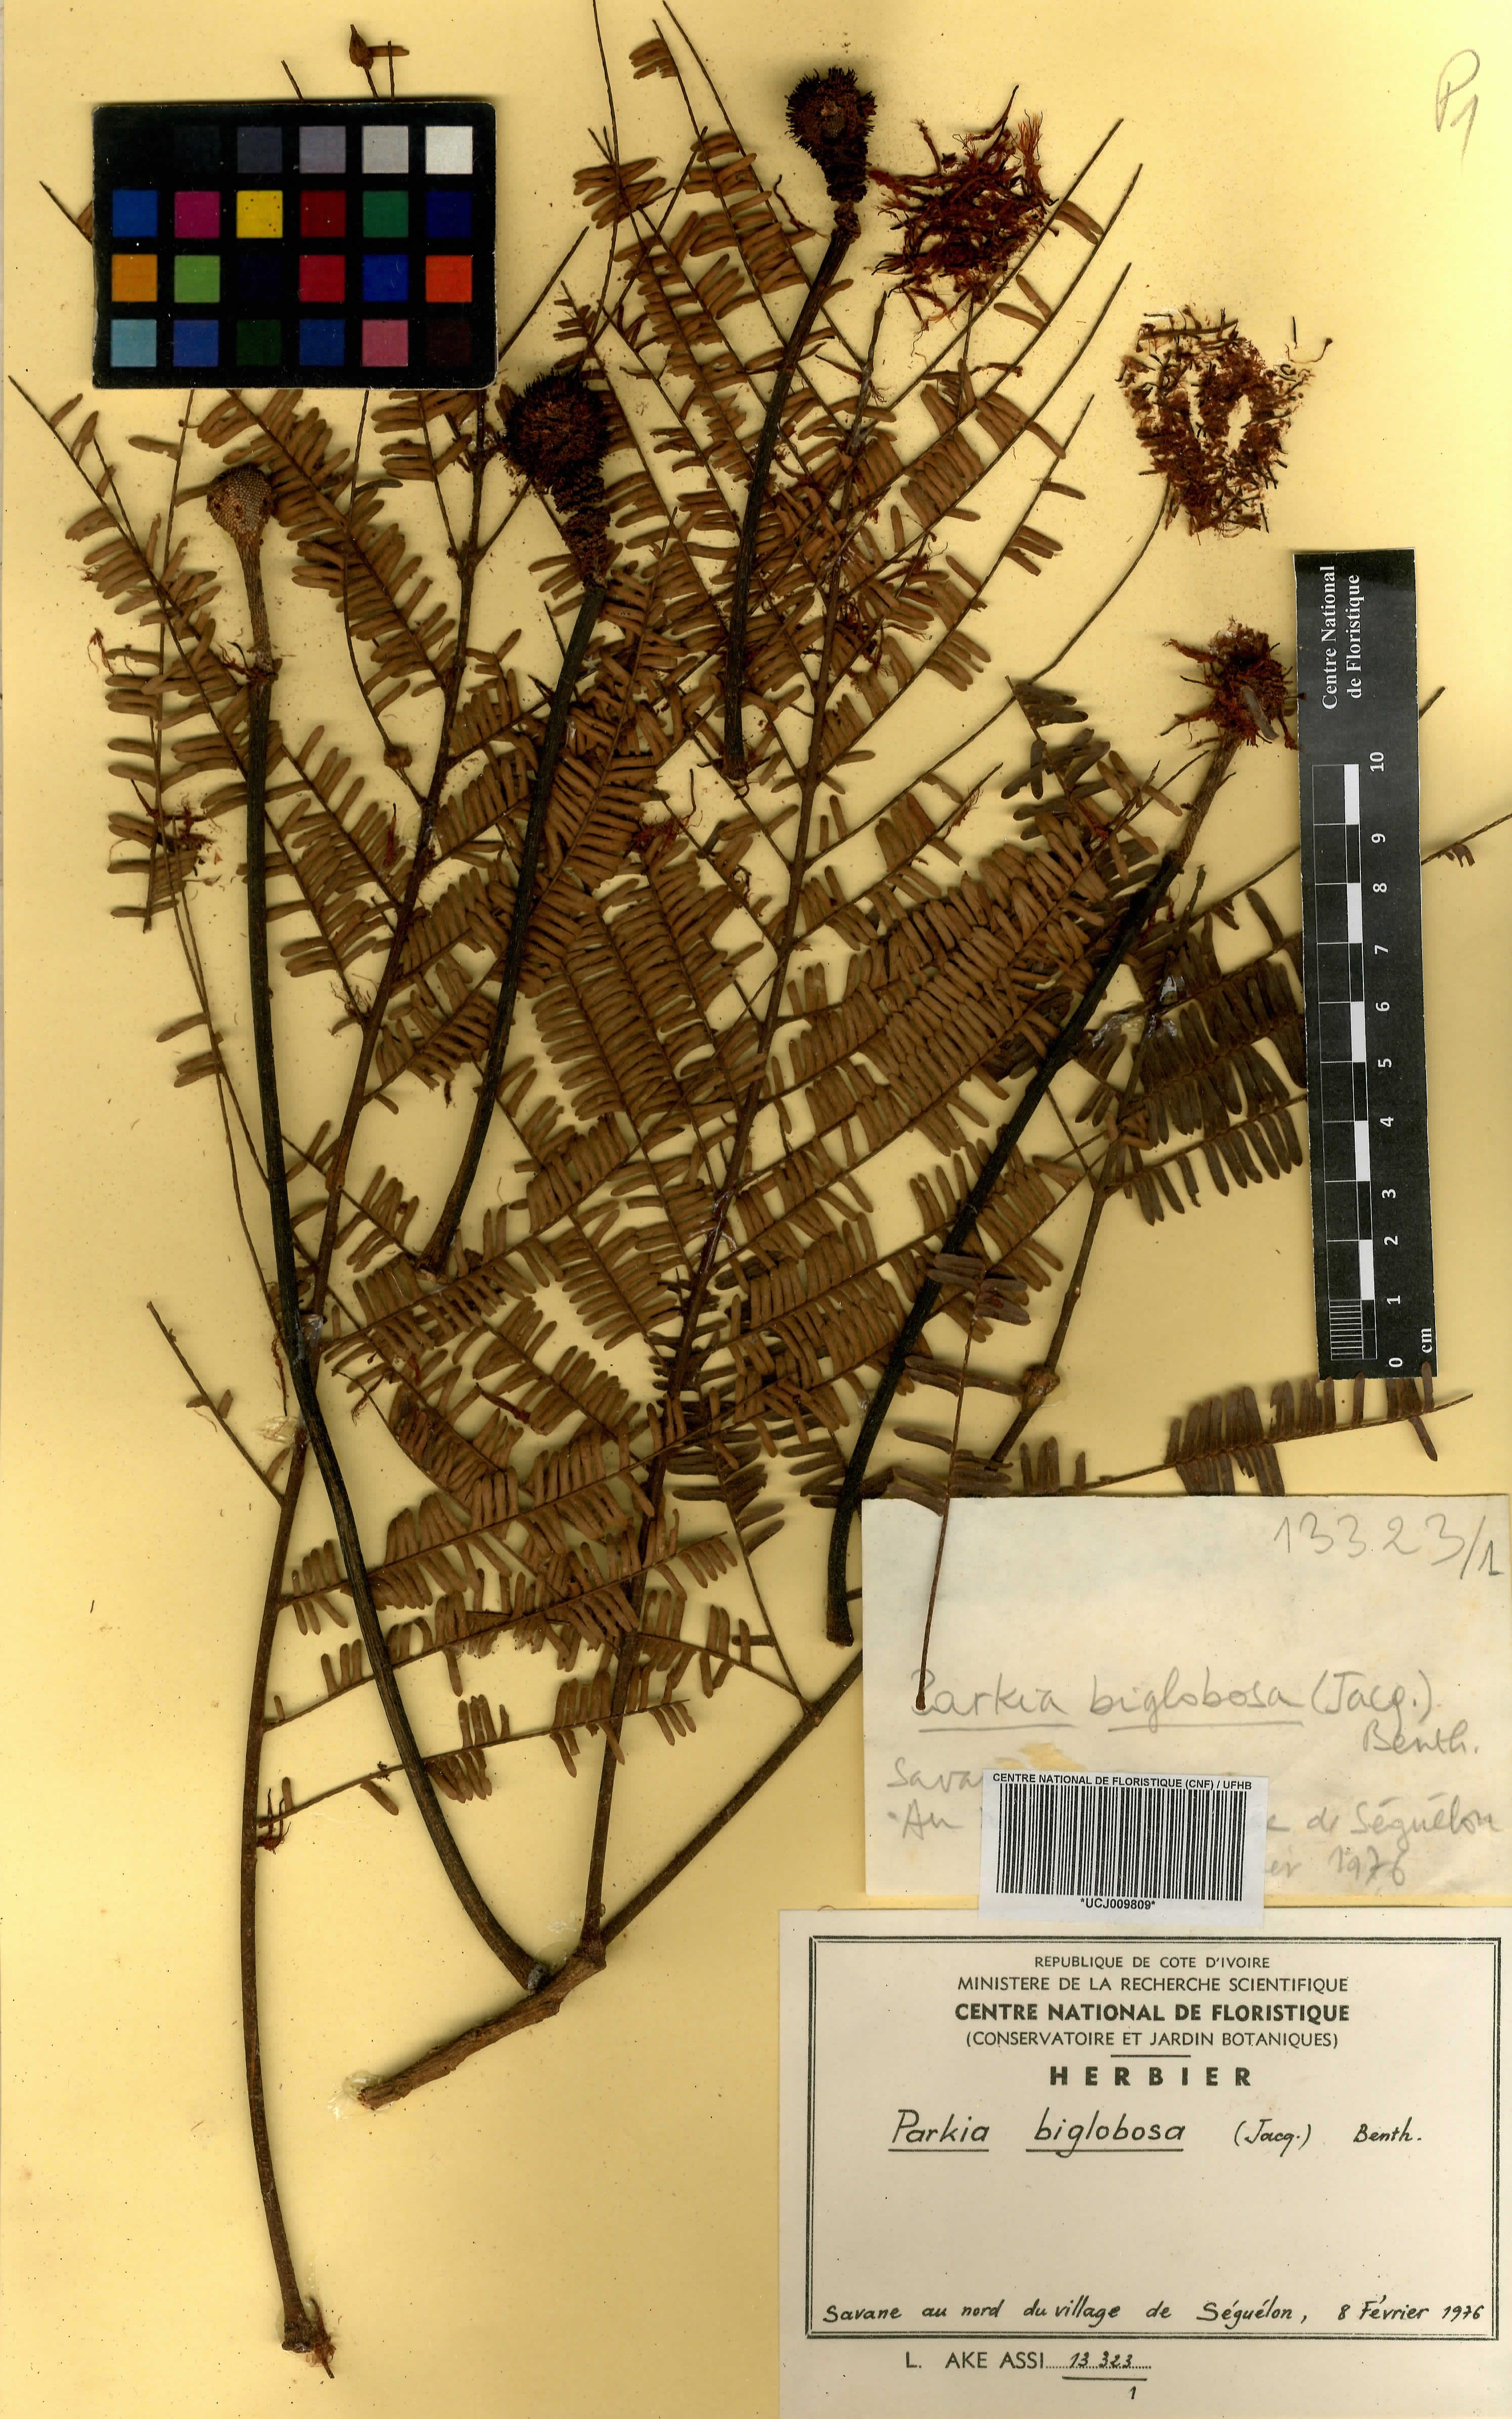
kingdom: Plantae
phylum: Tracheophyta
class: Magnoliopsida
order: Fabales
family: Fabaceae
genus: Parkia
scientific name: Parkia timoriana
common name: Legume
